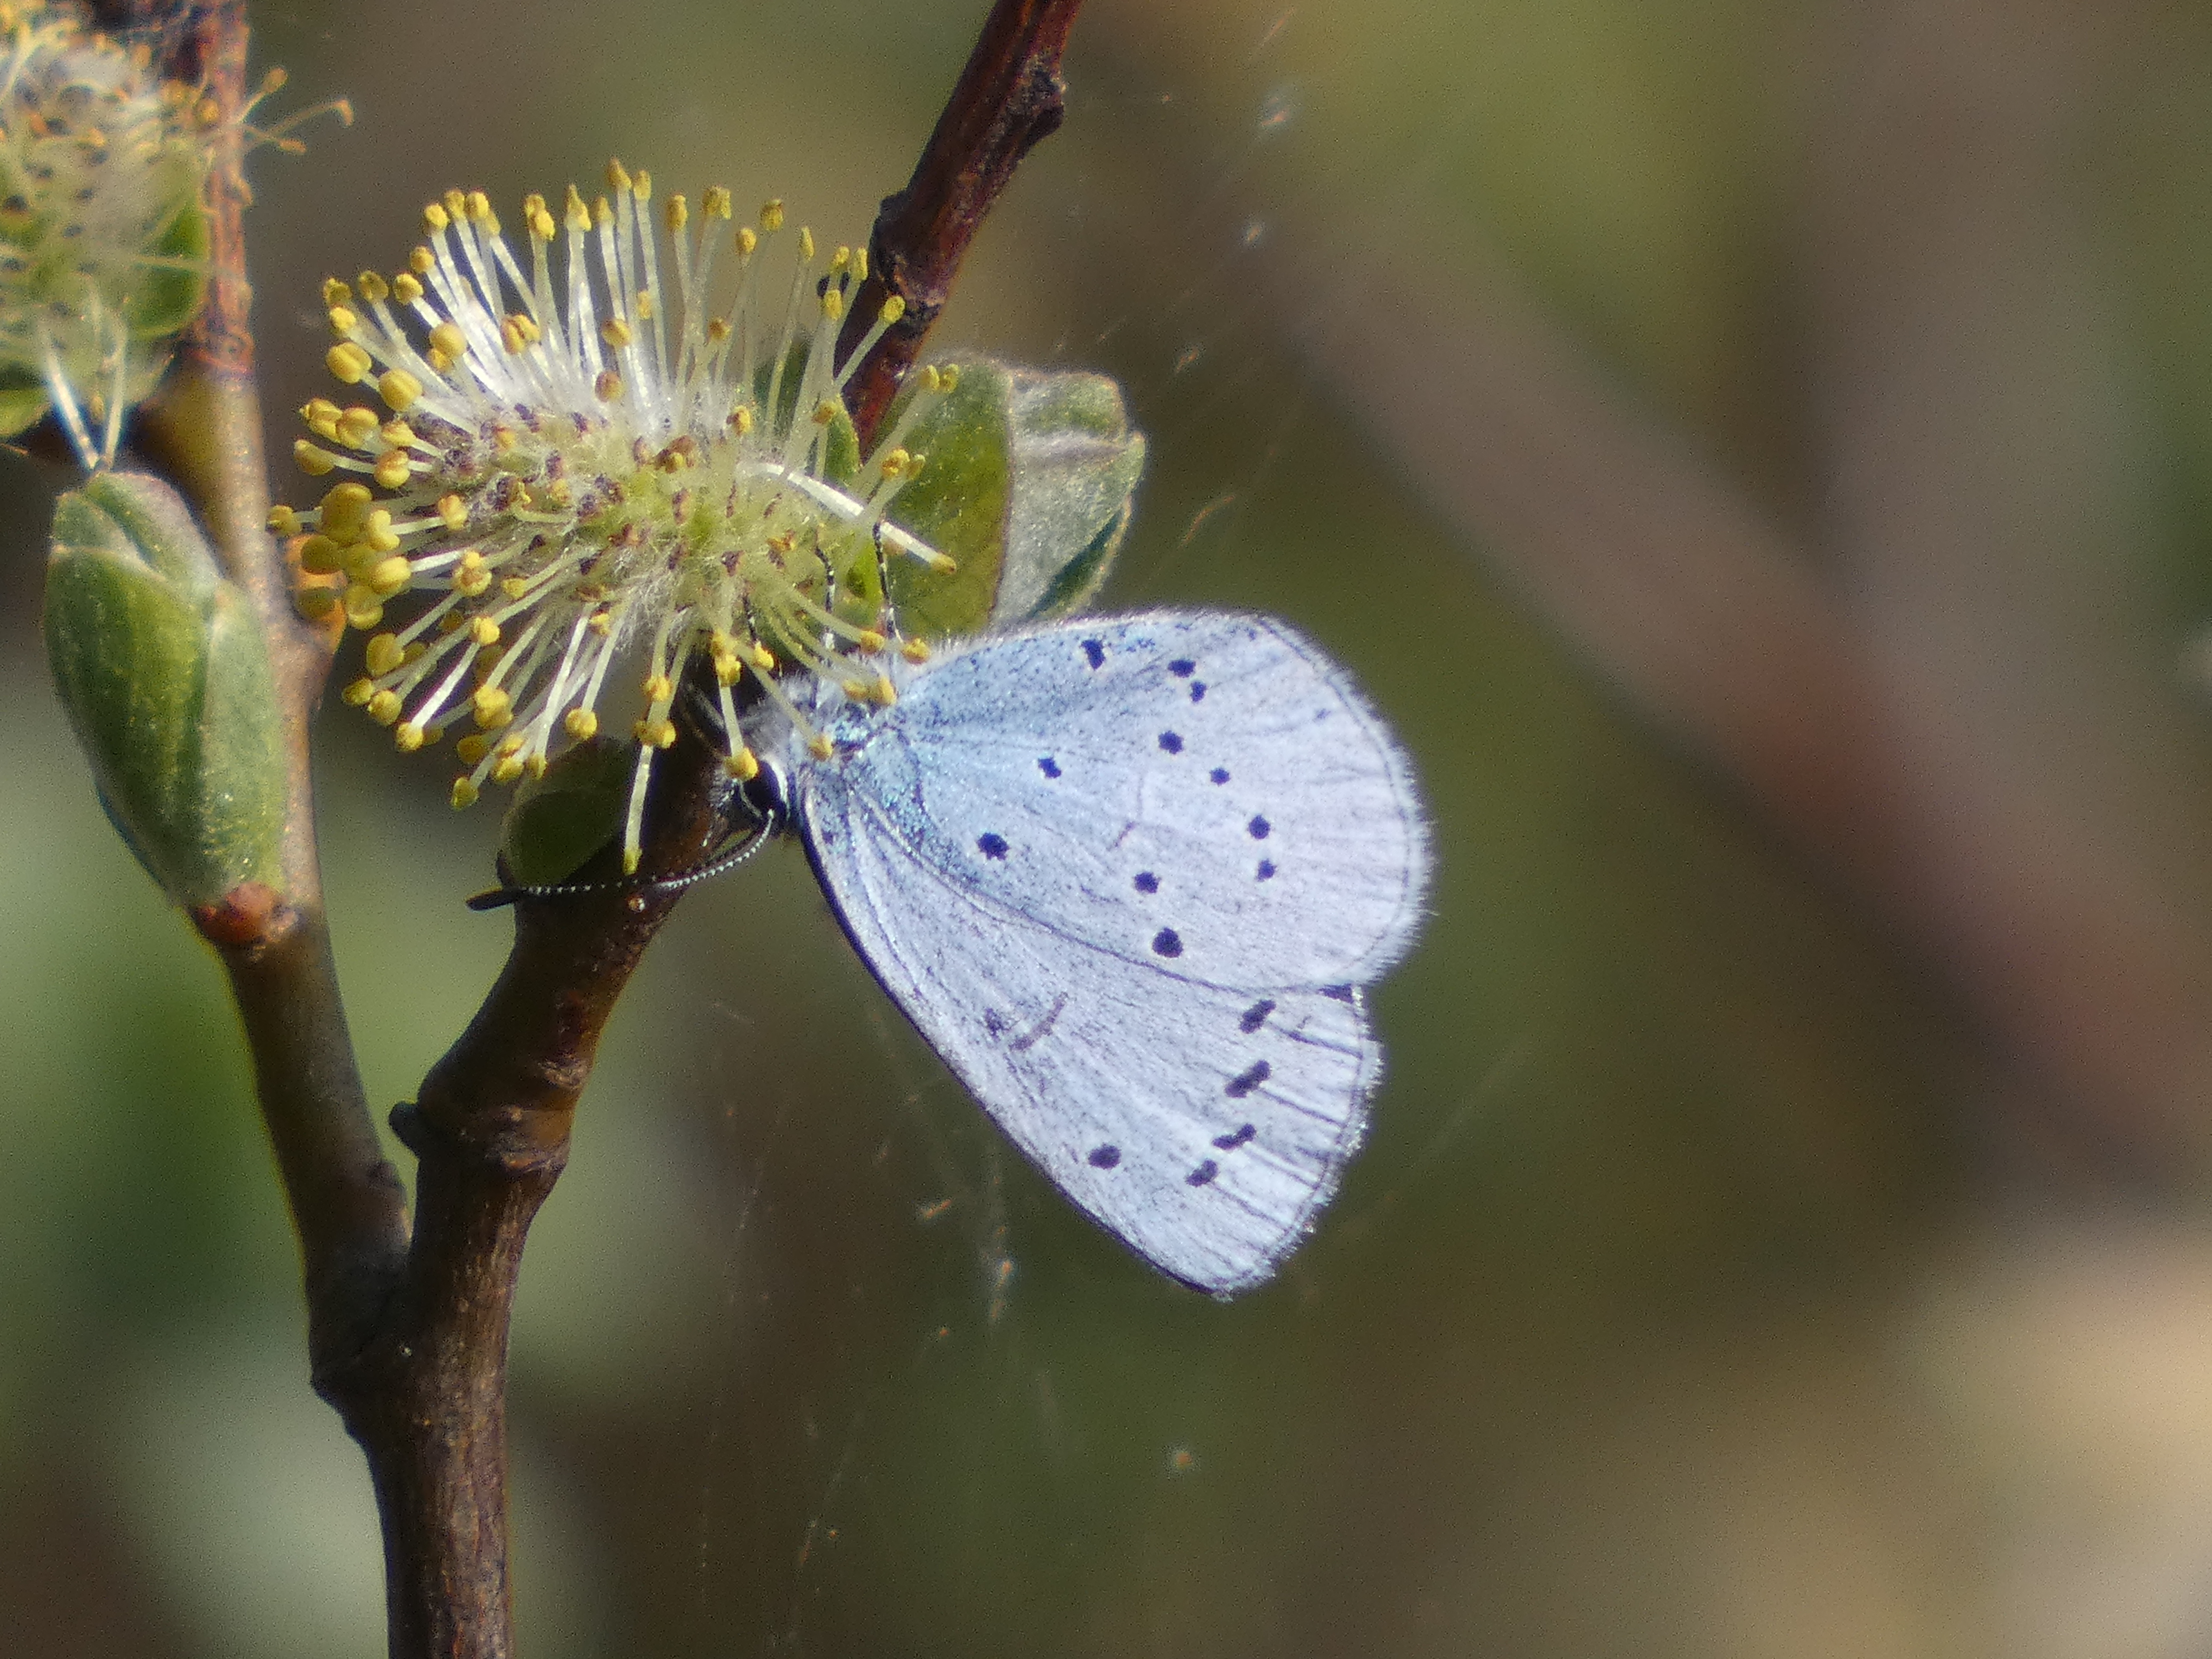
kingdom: Animalia
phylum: Arthropoda
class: Insecta
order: Lepidoptera
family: Lycaenidae
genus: Celastrina
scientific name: Celastrina argiolus
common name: Skovblåfugl
